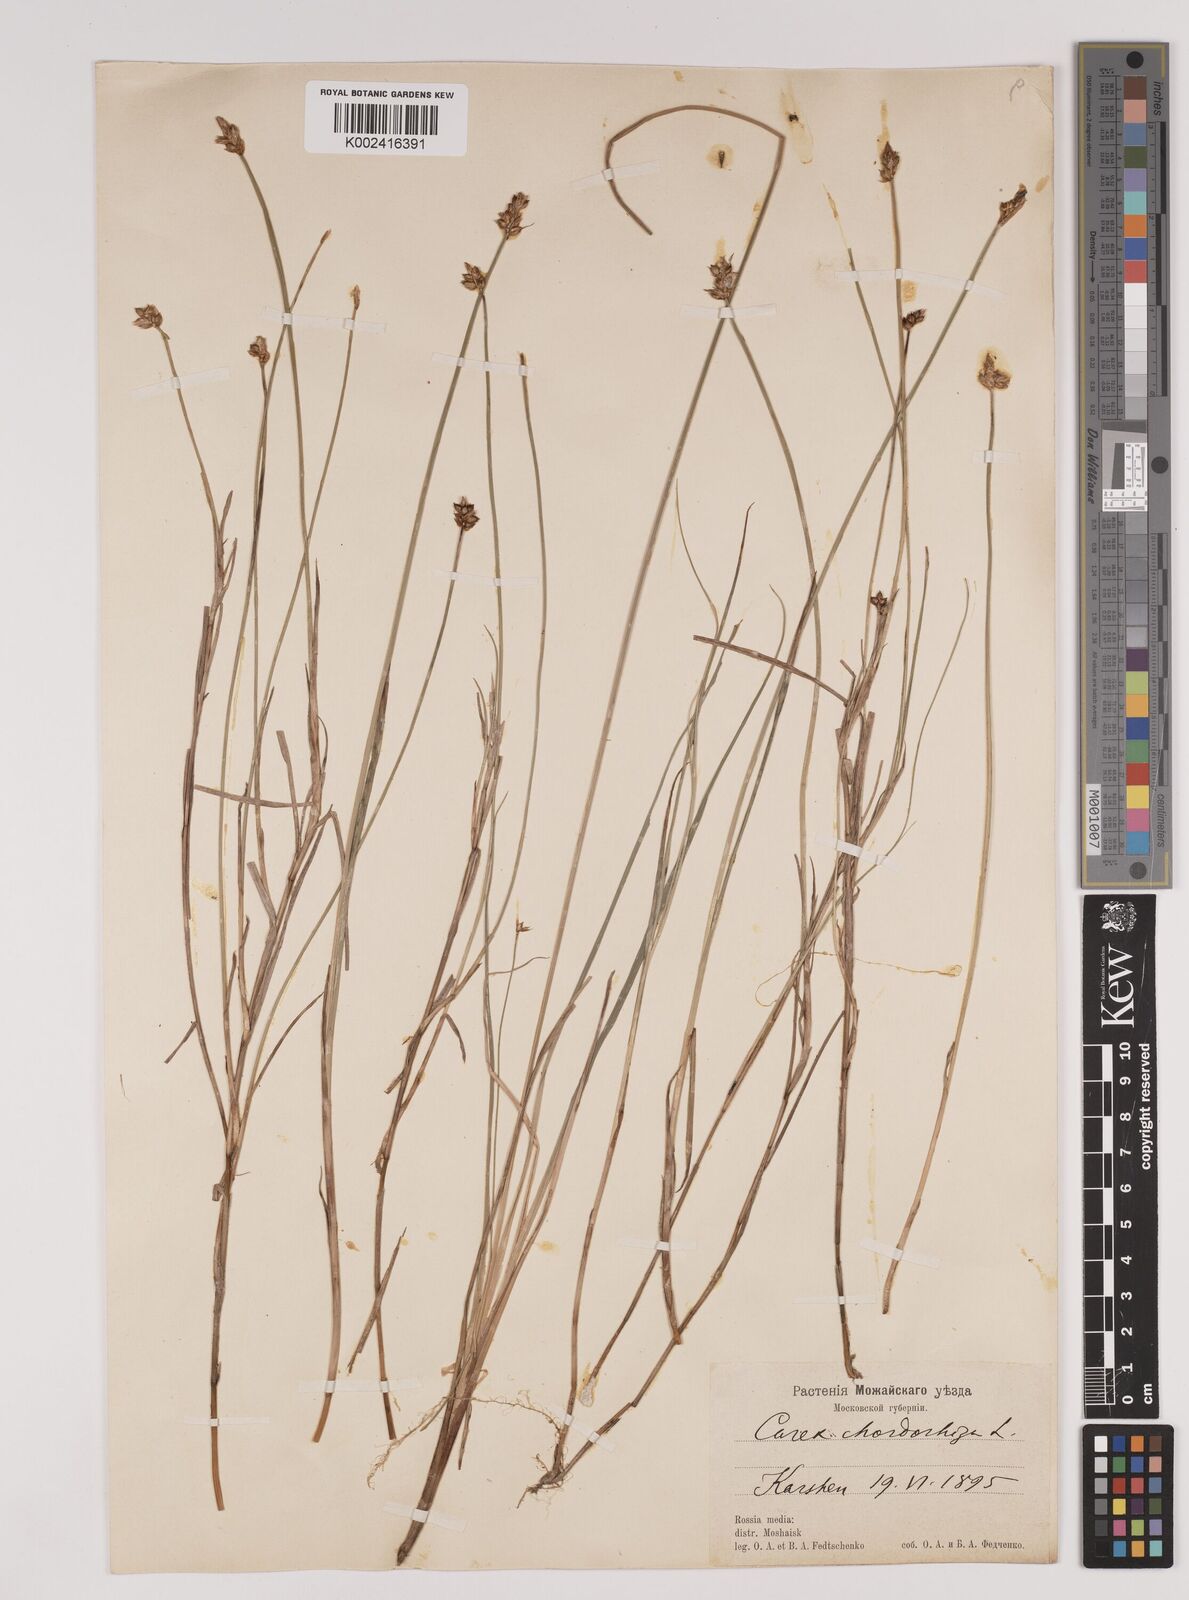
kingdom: Plantae
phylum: Tracheophyta
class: Liliopsida
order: Poales
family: Cyperaceae
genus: Carex
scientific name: Carex chordorrhiza
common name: String sedge
